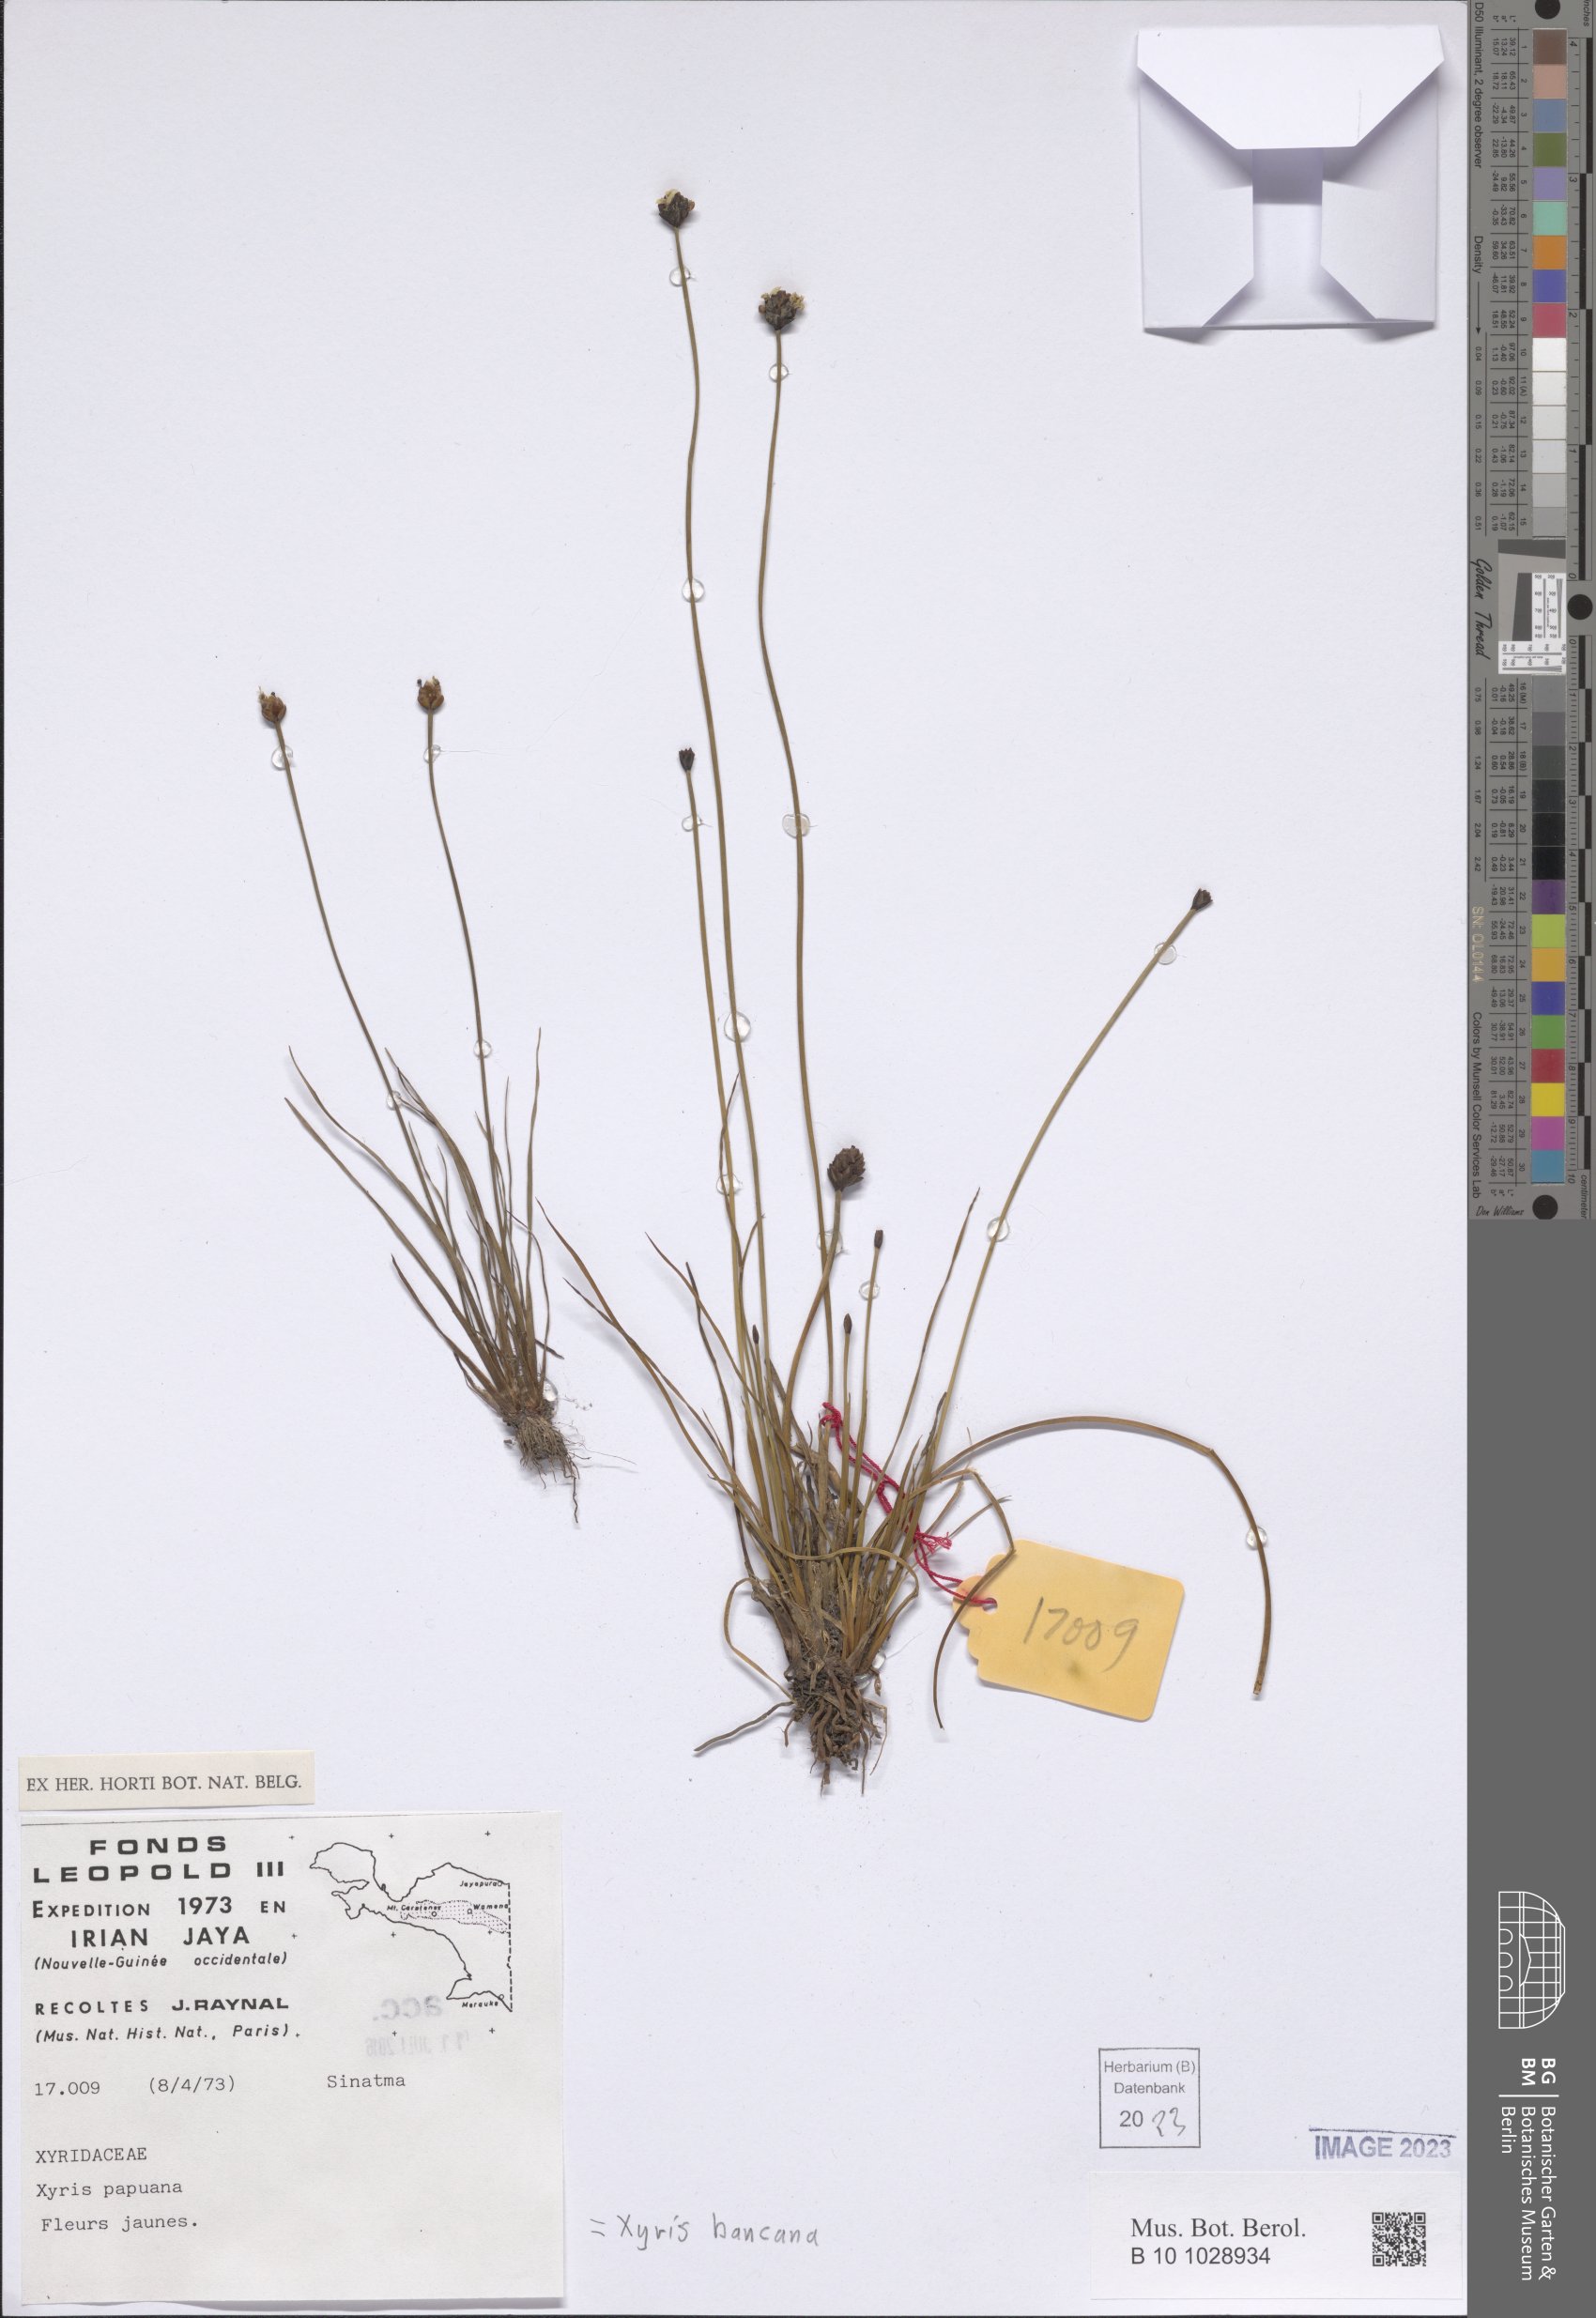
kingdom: Plantae
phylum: Tracheophyta
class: Liliopsida
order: Poales
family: Xyridaceae
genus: Xyris
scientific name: Xyris bancana
